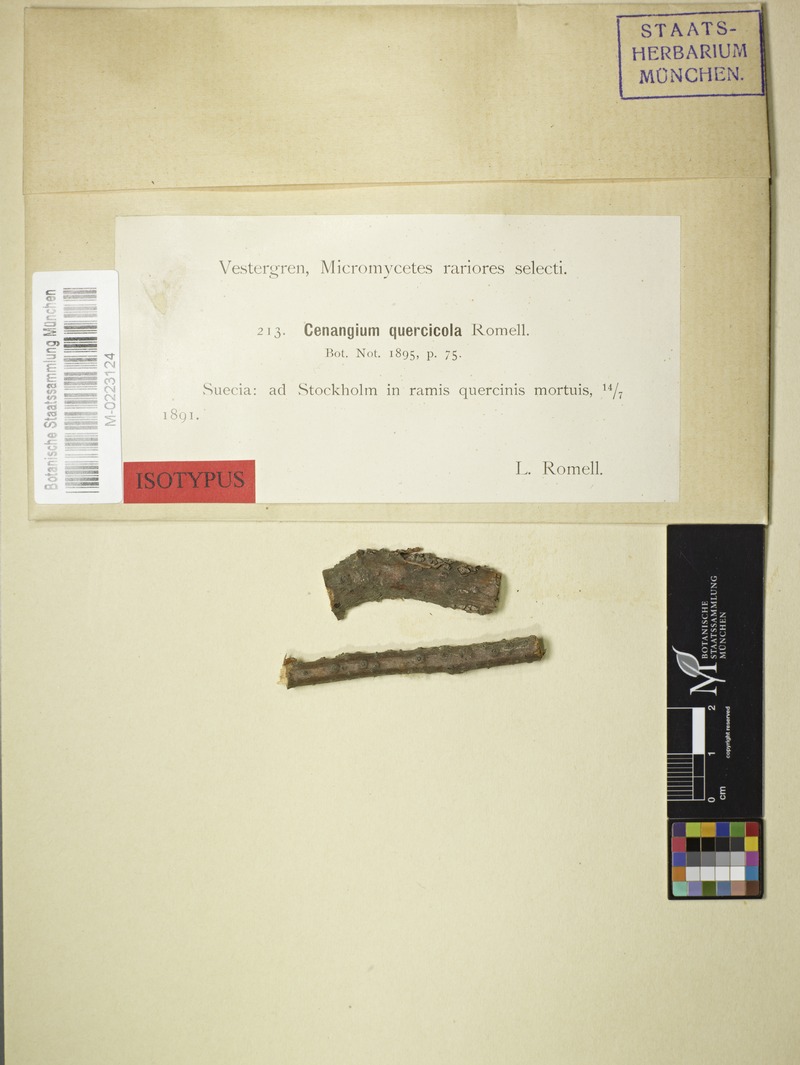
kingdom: Fungi
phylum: Ascomycota
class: Leotiomycetes
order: Helotiales
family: Cenangiaceae
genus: Cenangiopsis
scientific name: Cenangiopsis quercicola
